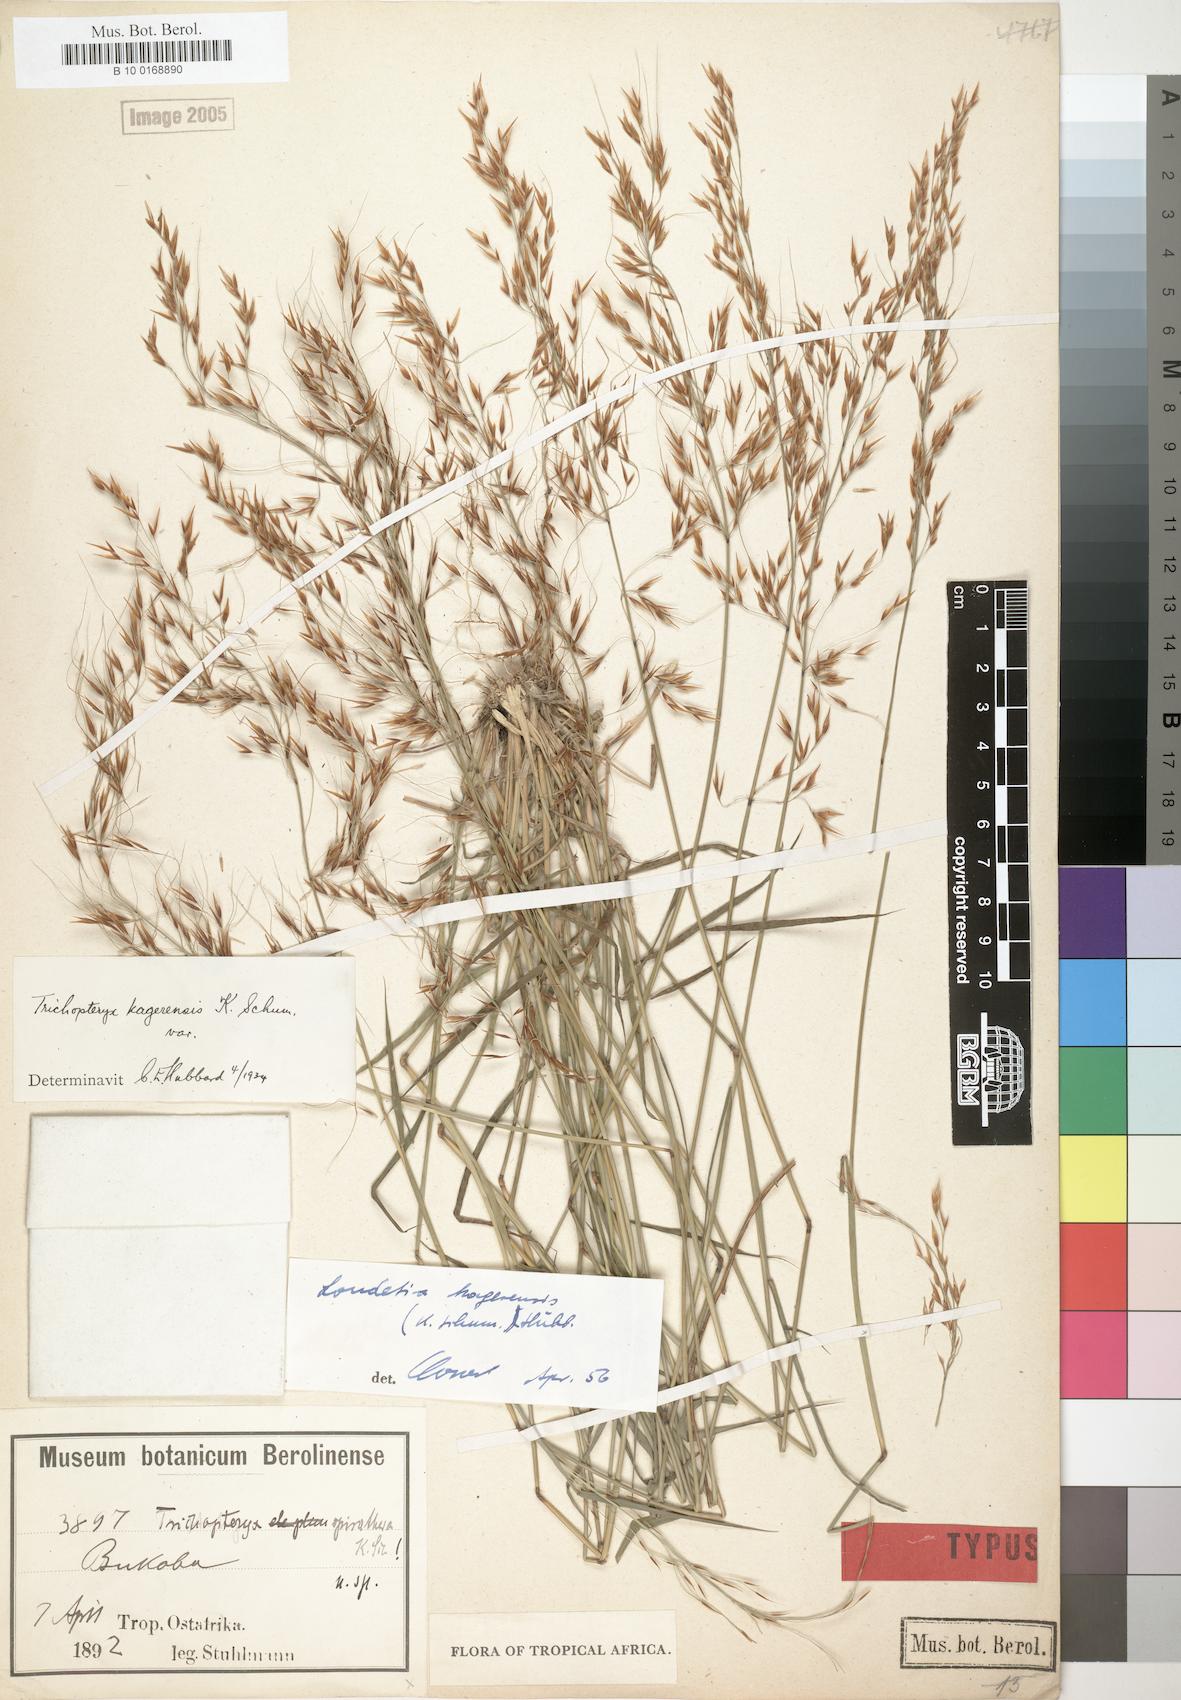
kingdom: Plantae
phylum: Tracheophyta
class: Liliopsida
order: Poales
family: Poaceae
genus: Loudetia
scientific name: Loudetia kagerensis
